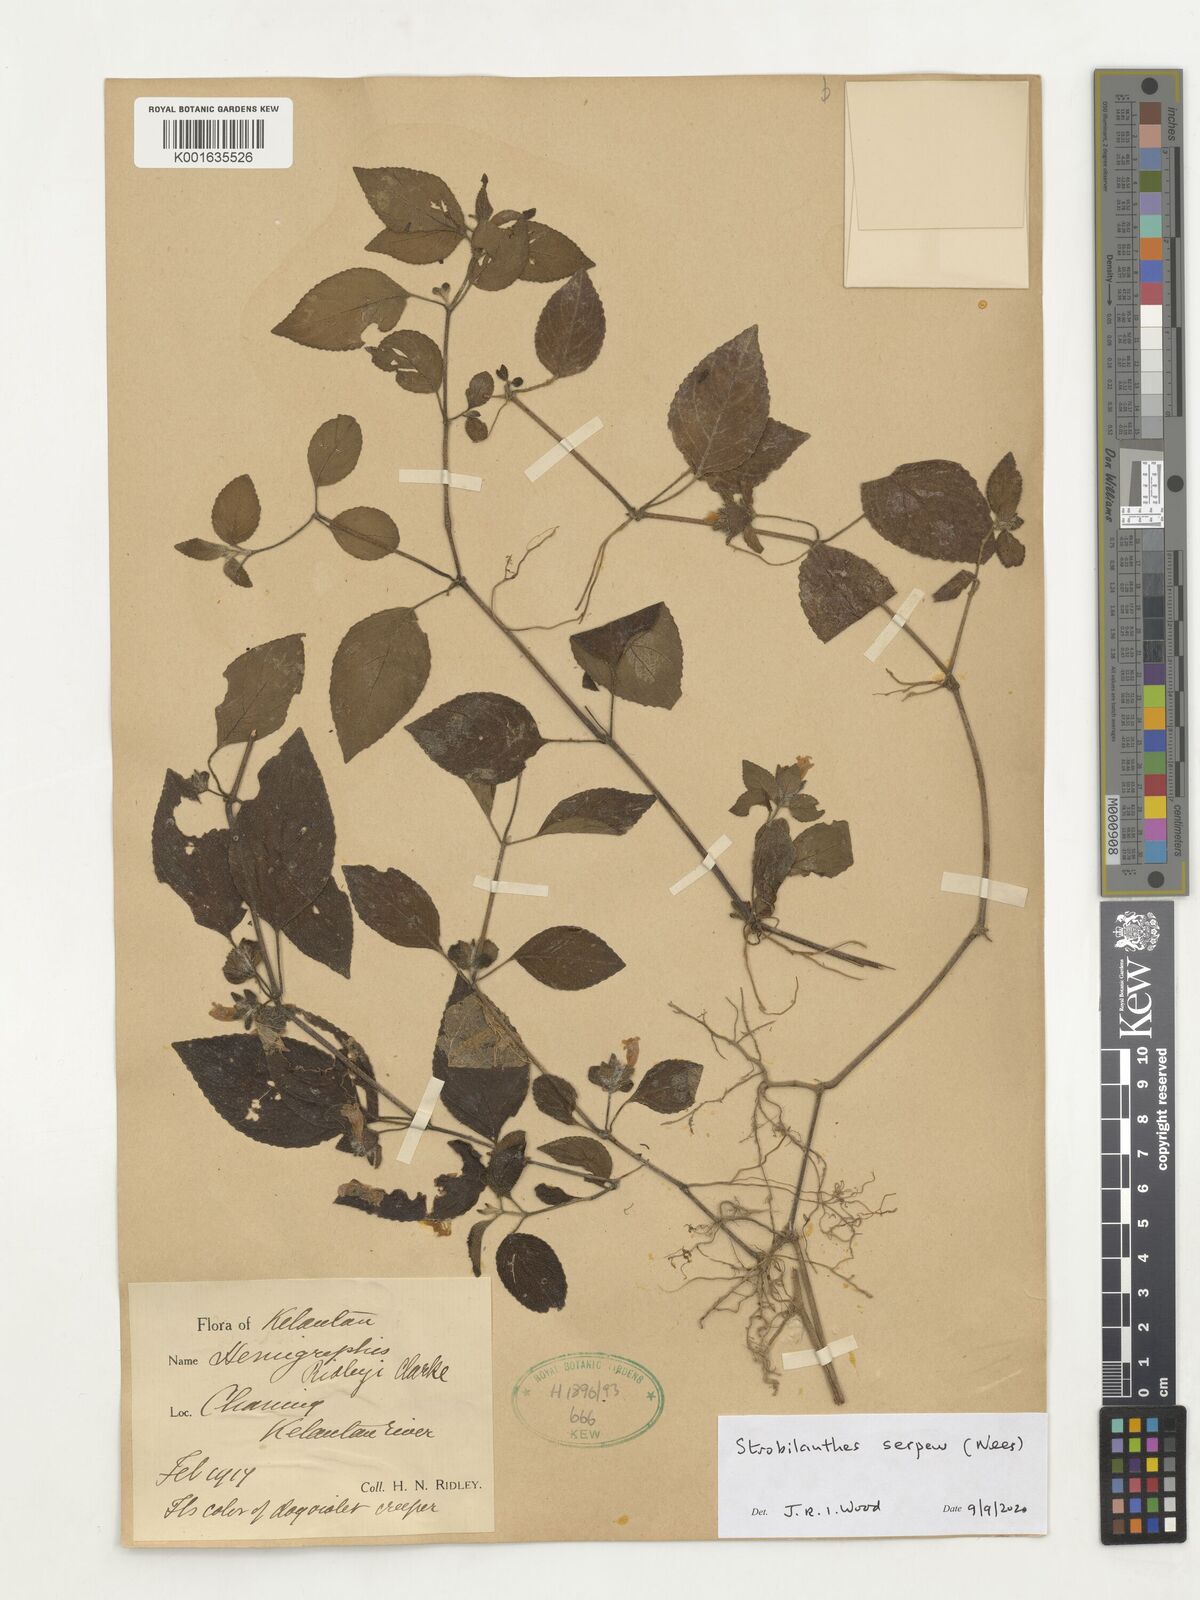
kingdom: Plantae
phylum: Tracheophyta
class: Magnoliopsida
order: Lamiales
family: Acanthaceae
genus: Strobilanthes
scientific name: Strobilanthes
